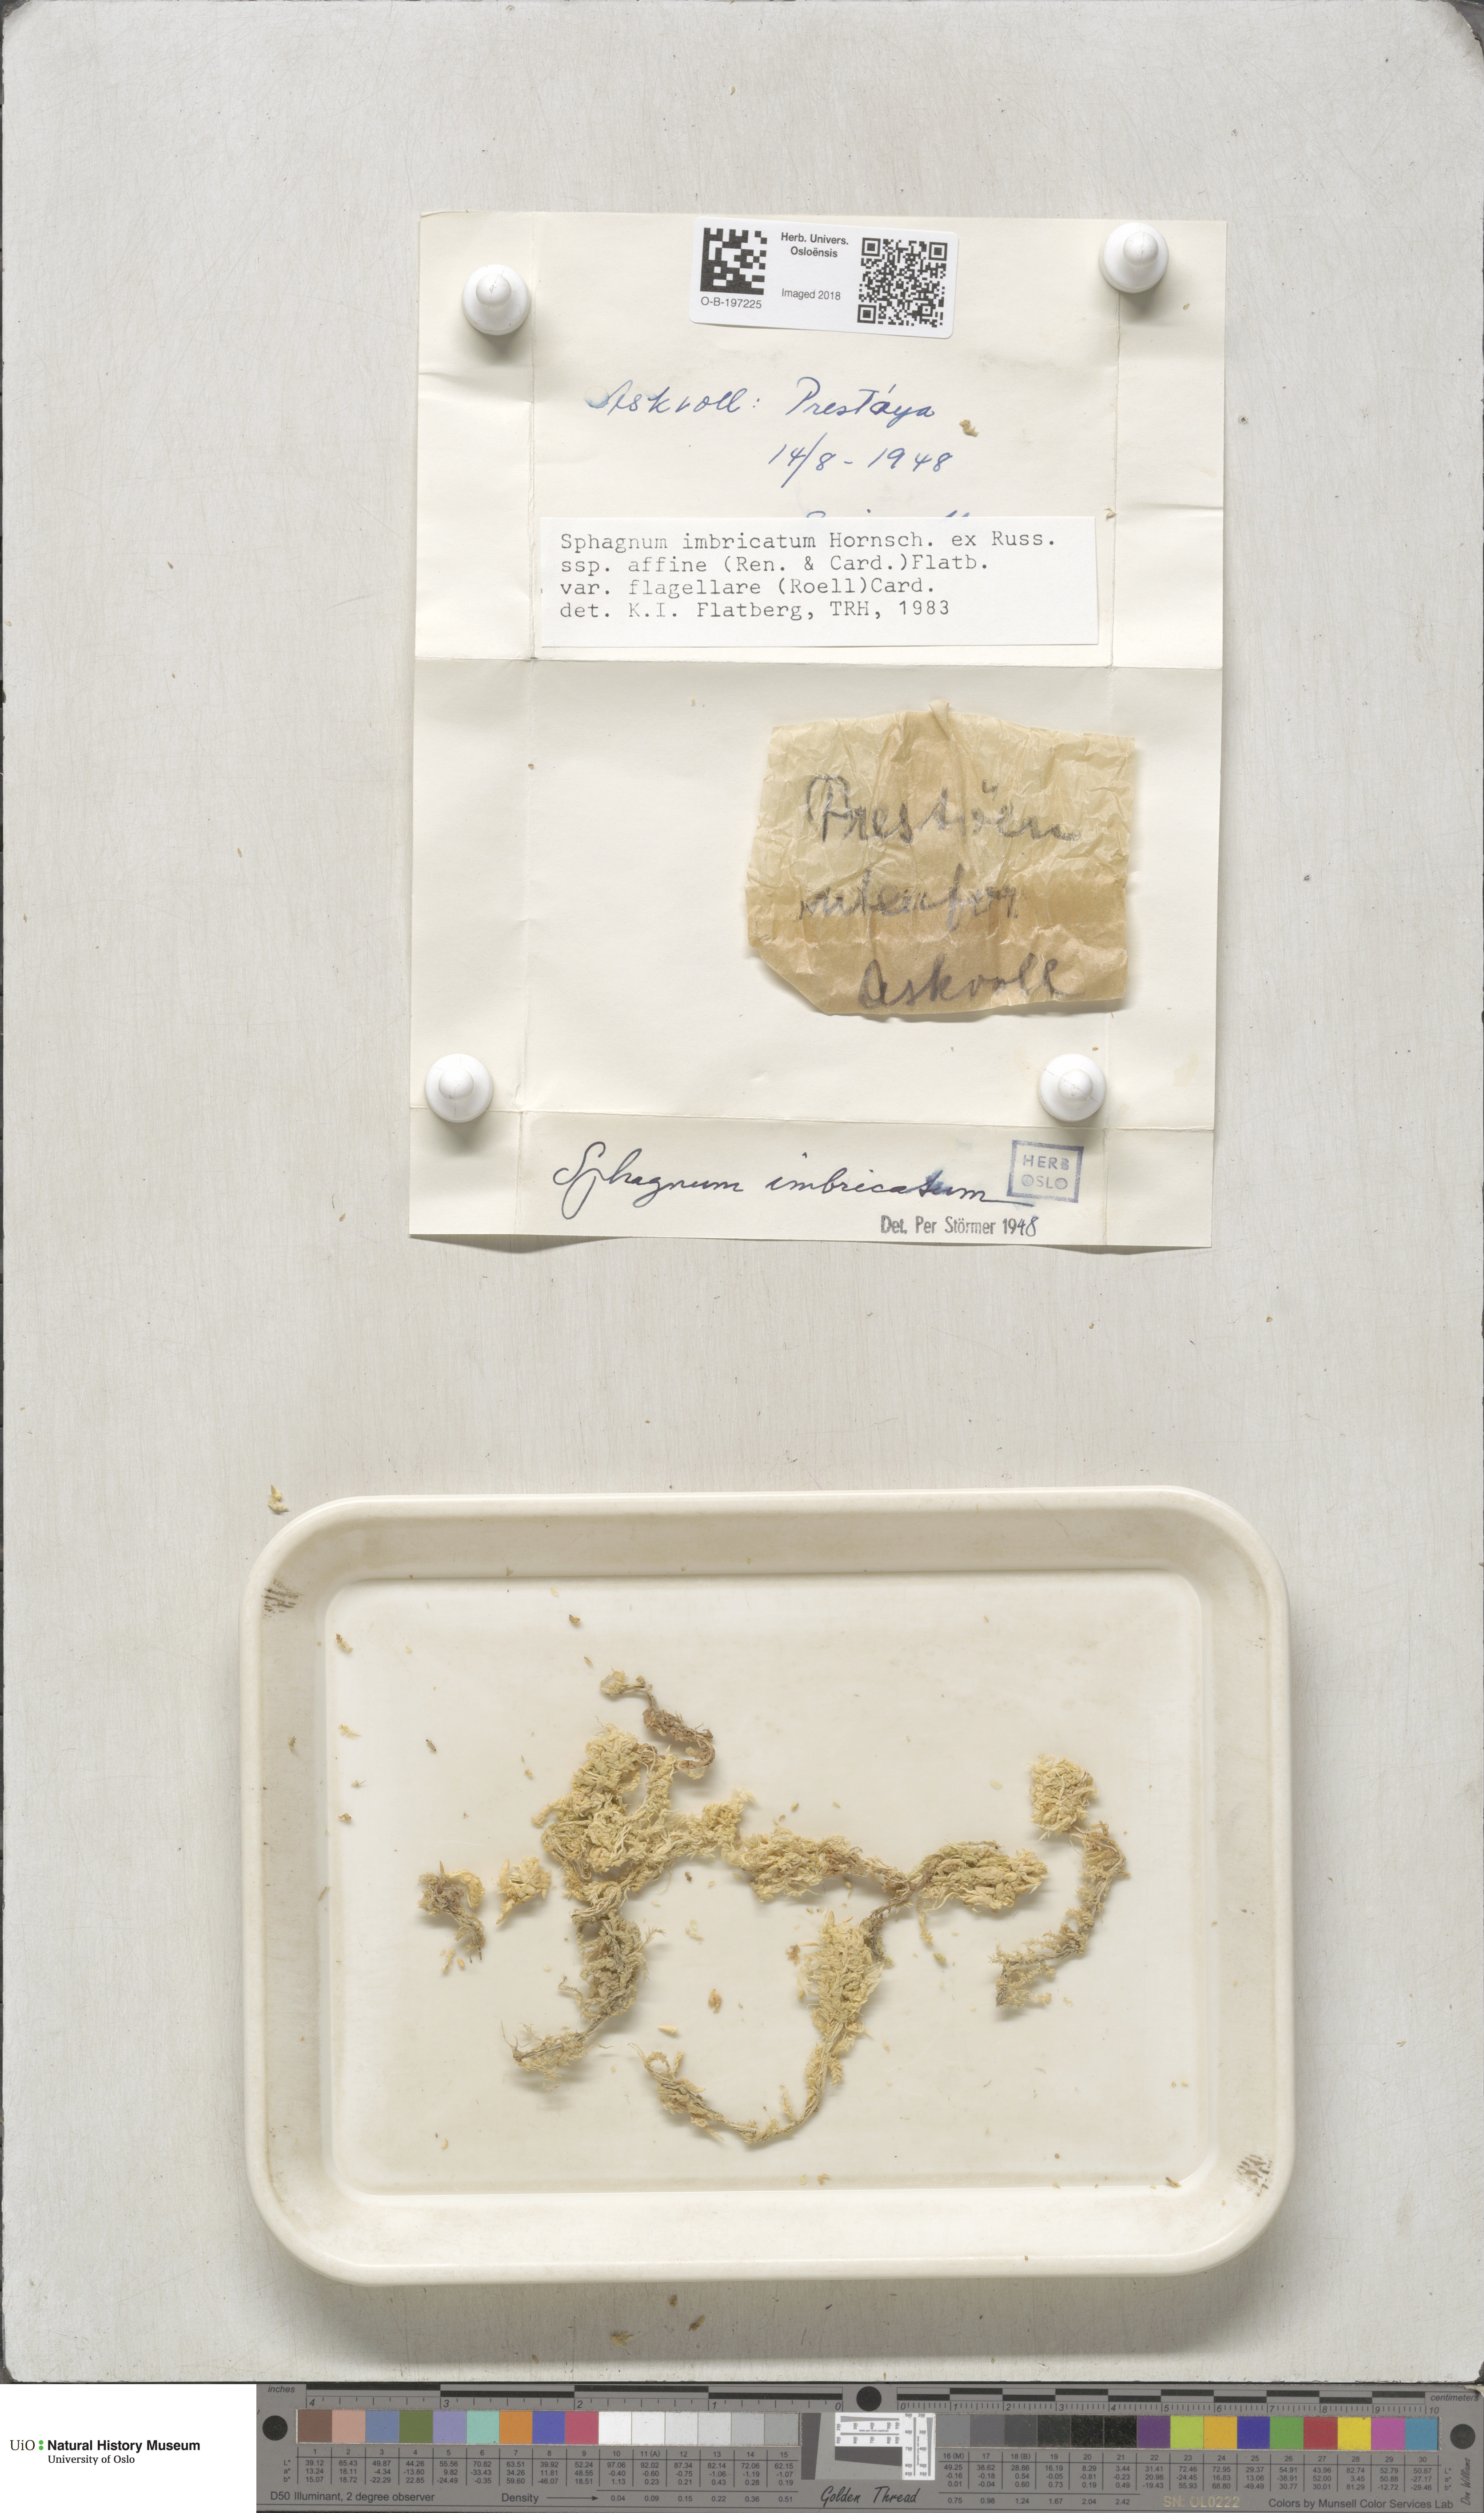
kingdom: Plantae
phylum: Bryophyta
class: Sphagnopsida
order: Sphagnales
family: Sphagnaceae
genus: Sphagnum
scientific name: Sphagnum affine
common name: Imbricate peat moss
